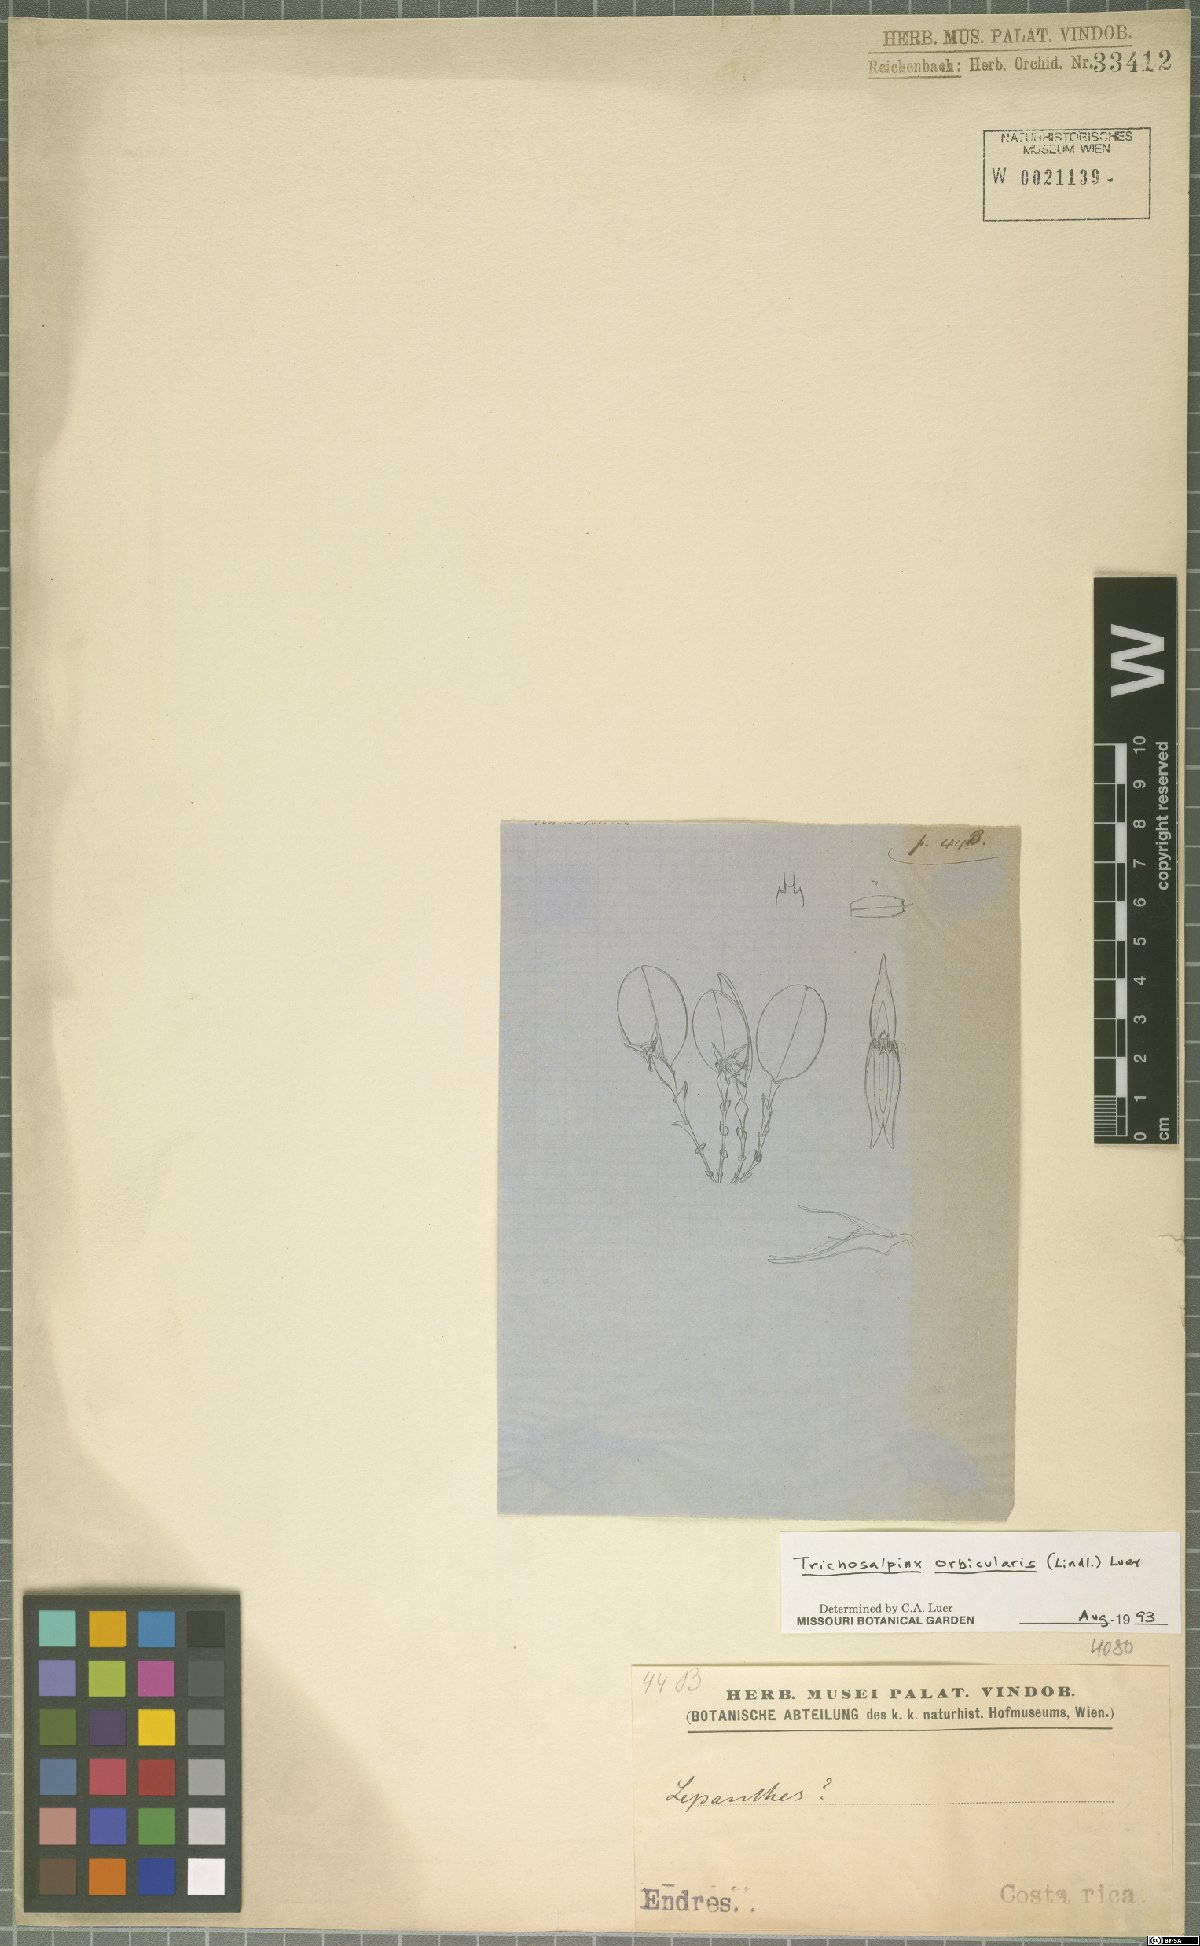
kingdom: Plantae
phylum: Tracheophyta
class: Liliopsida
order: Asparagales
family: Orchidaceae
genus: Trichosalpinx
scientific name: Trichosalpinx orbicularis
